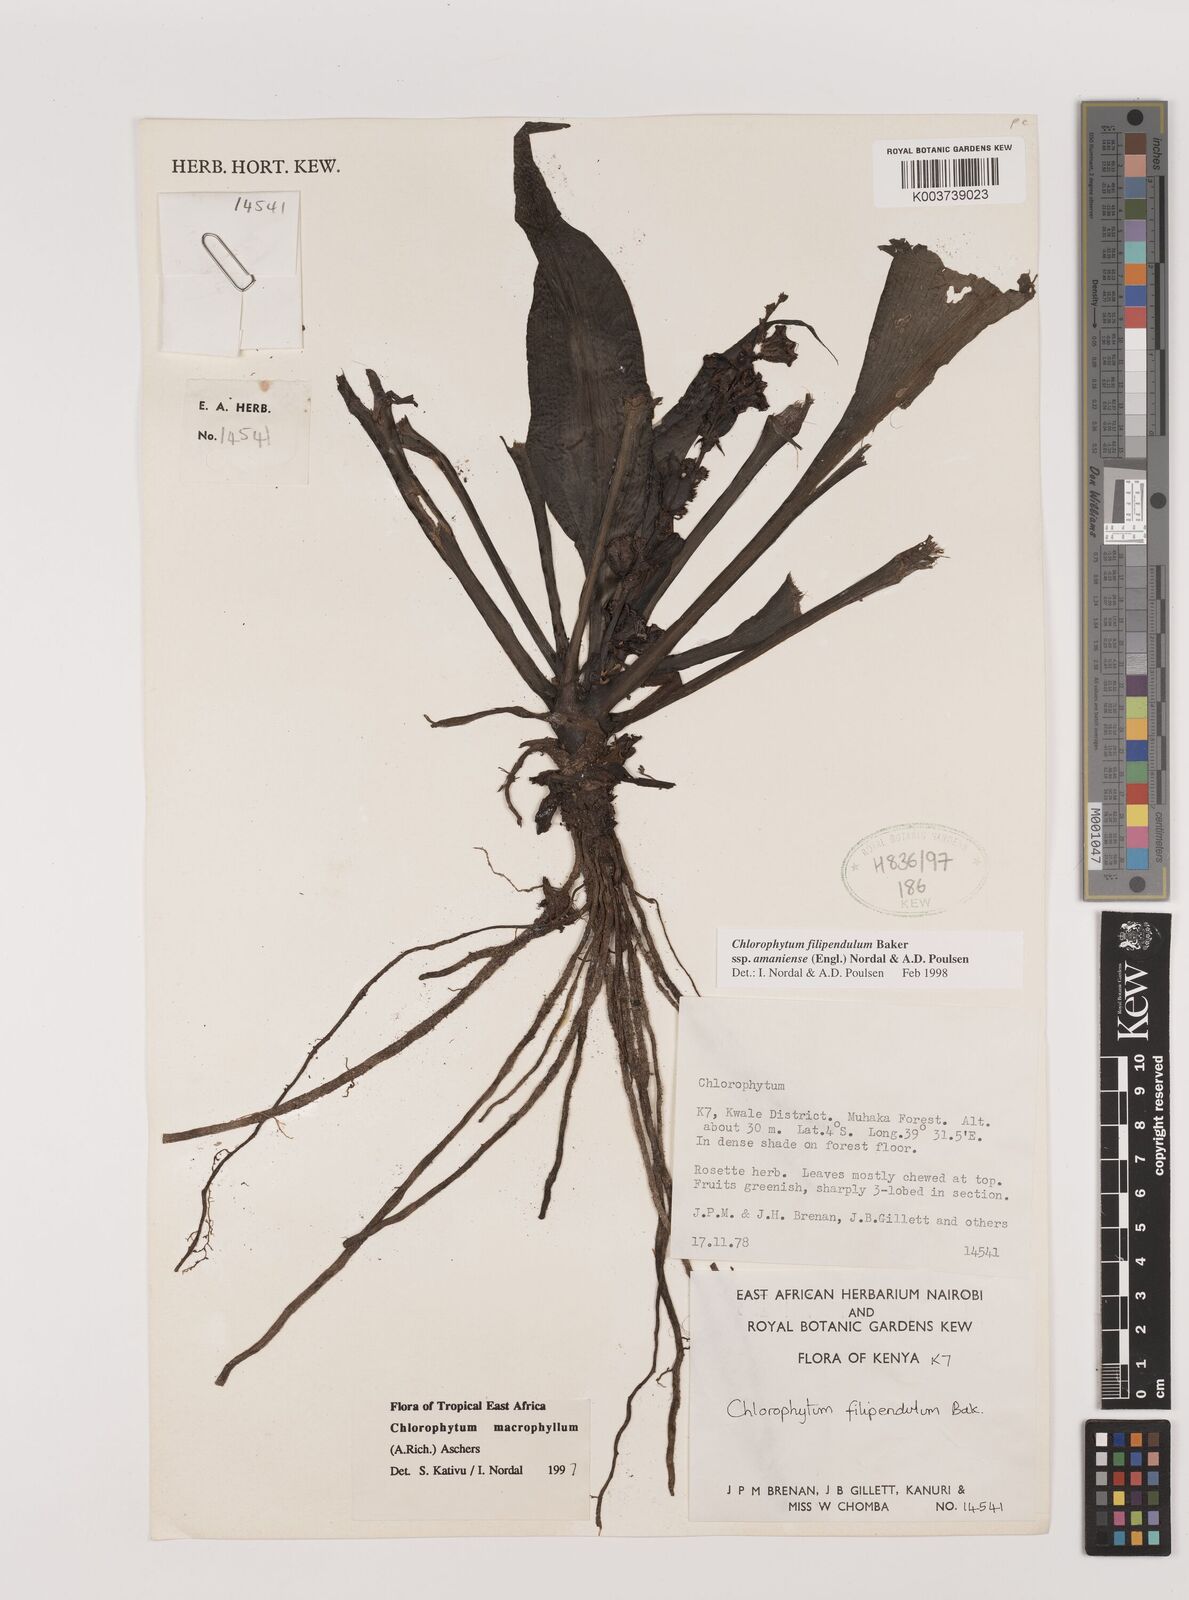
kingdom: Plantae
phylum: Tracheophyta
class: Liliopsida
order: Asparagales
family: Asparagaceae
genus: Chlorophytum
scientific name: Chlorophytum filipendulum
